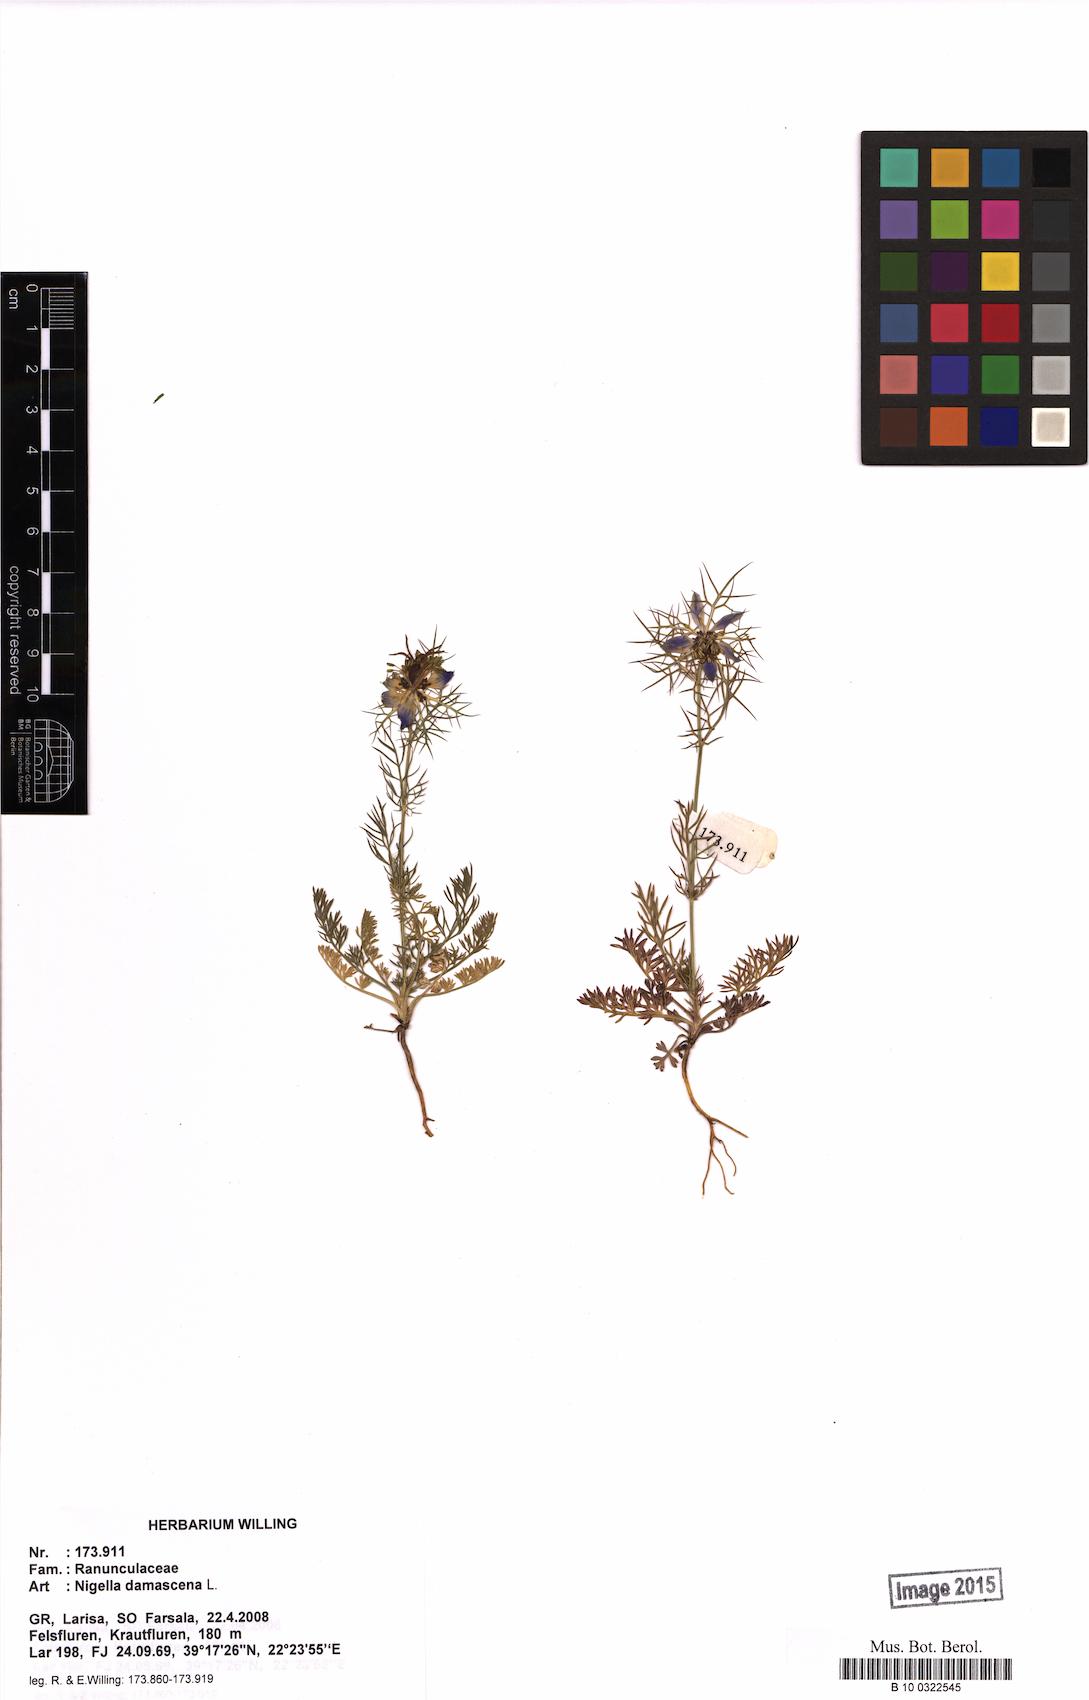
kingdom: Plantae
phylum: Tracheophyta
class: Magnoliopsida
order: Ranunculales
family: Ranunculaceae
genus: Nigella
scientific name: Nigella damascena
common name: Love-in-a-mist
